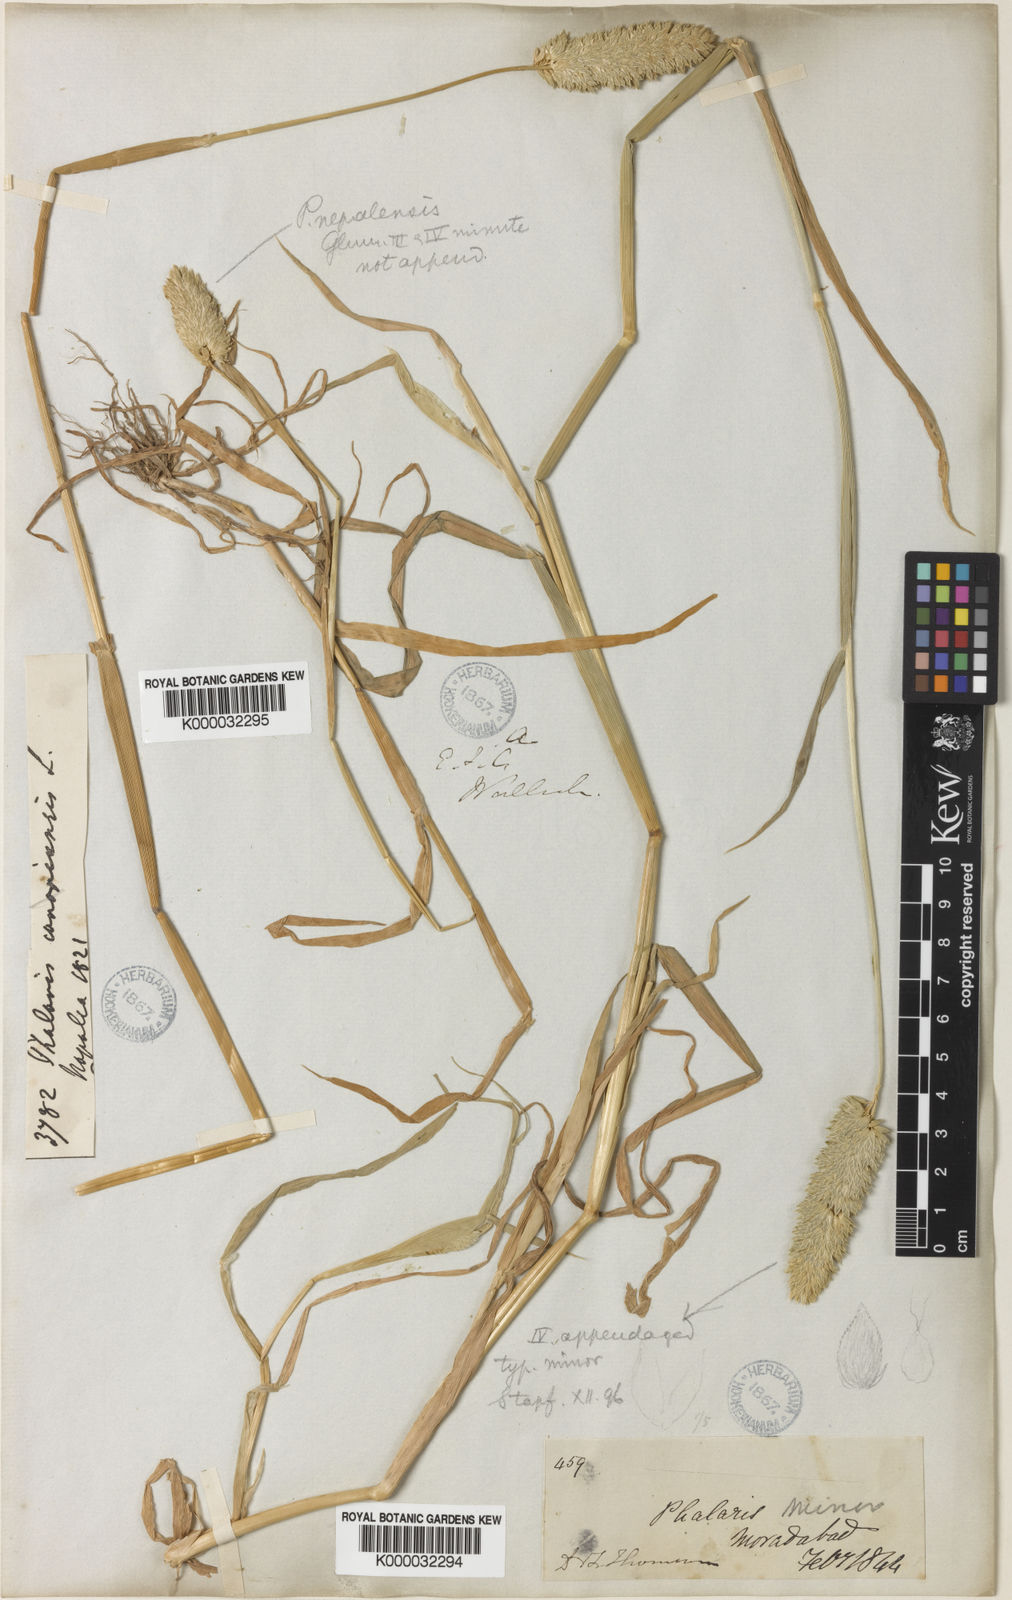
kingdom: Plantae
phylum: Tracheophyta
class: Liliopsida
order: Poales
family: Poaceae
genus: Phalaris
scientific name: Phalaris minor
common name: Littleseed canarygrass
